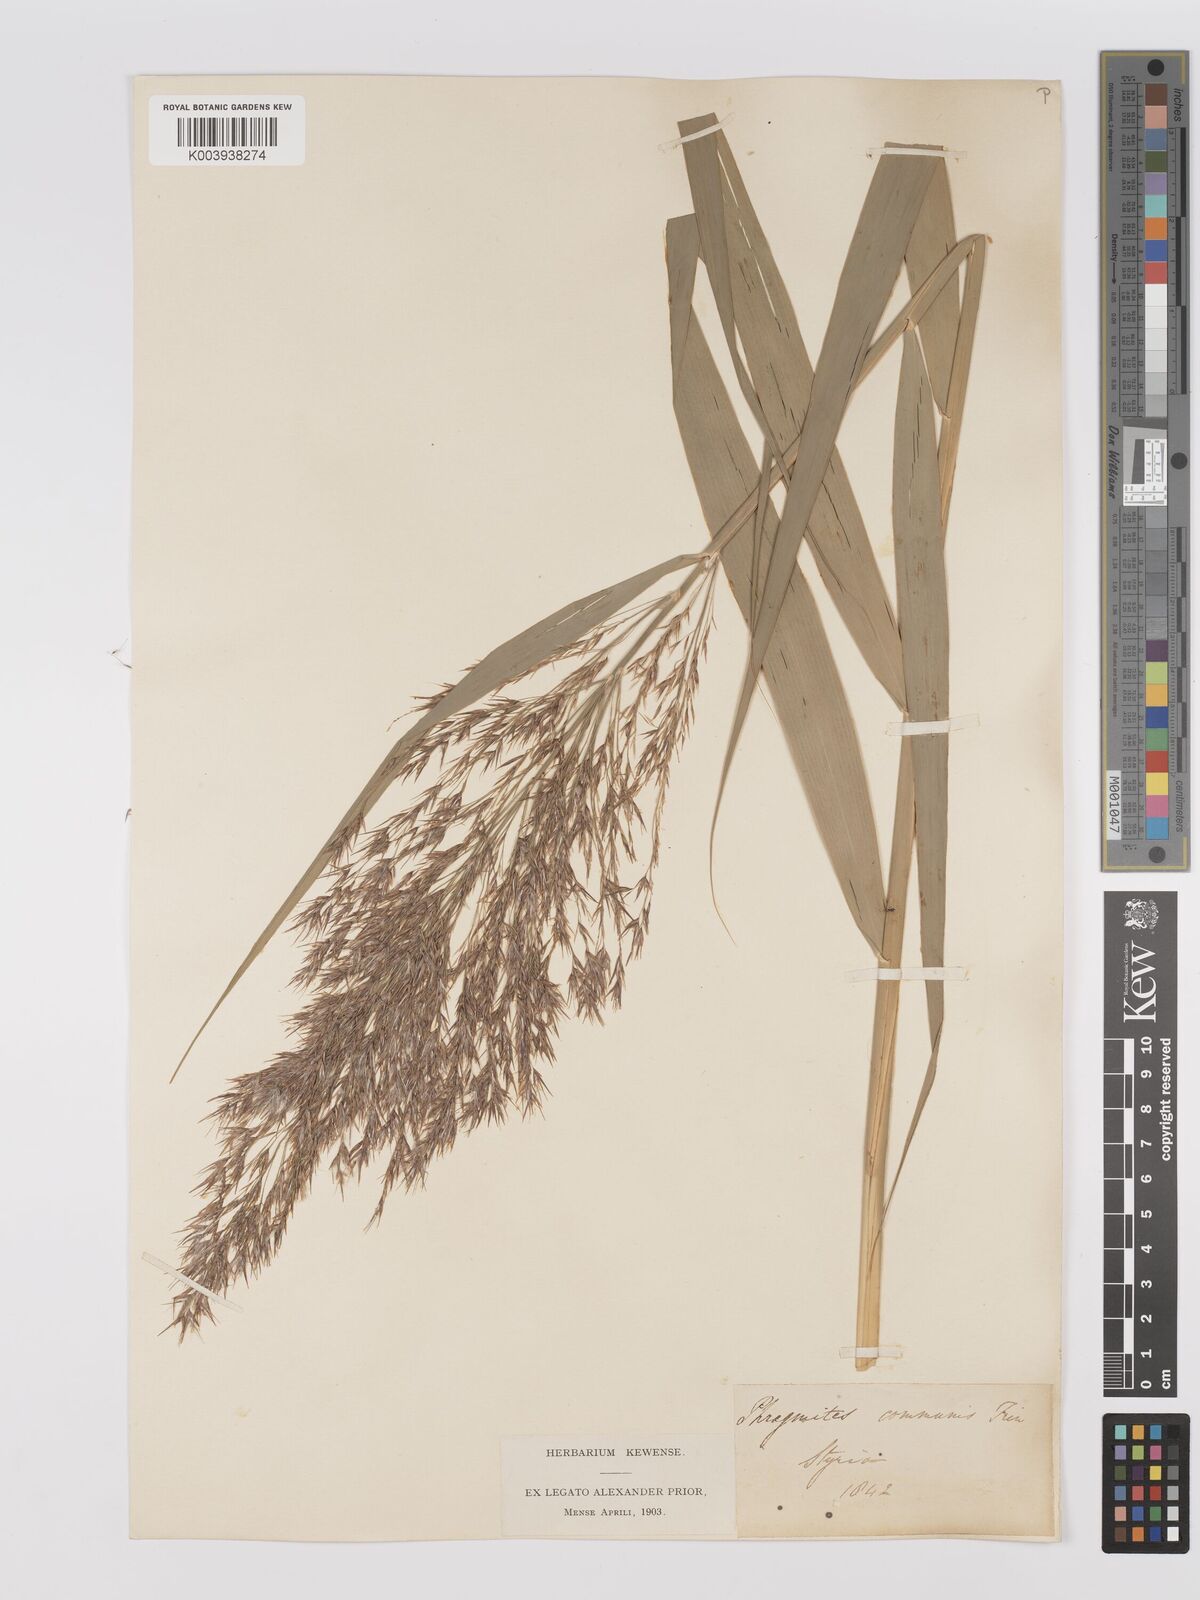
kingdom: Plantae
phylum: Tracheophyta
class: Liliopsida
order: Poales
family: Poaceae
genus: Phragmites
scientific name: Phragmites australis
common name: Common reed
